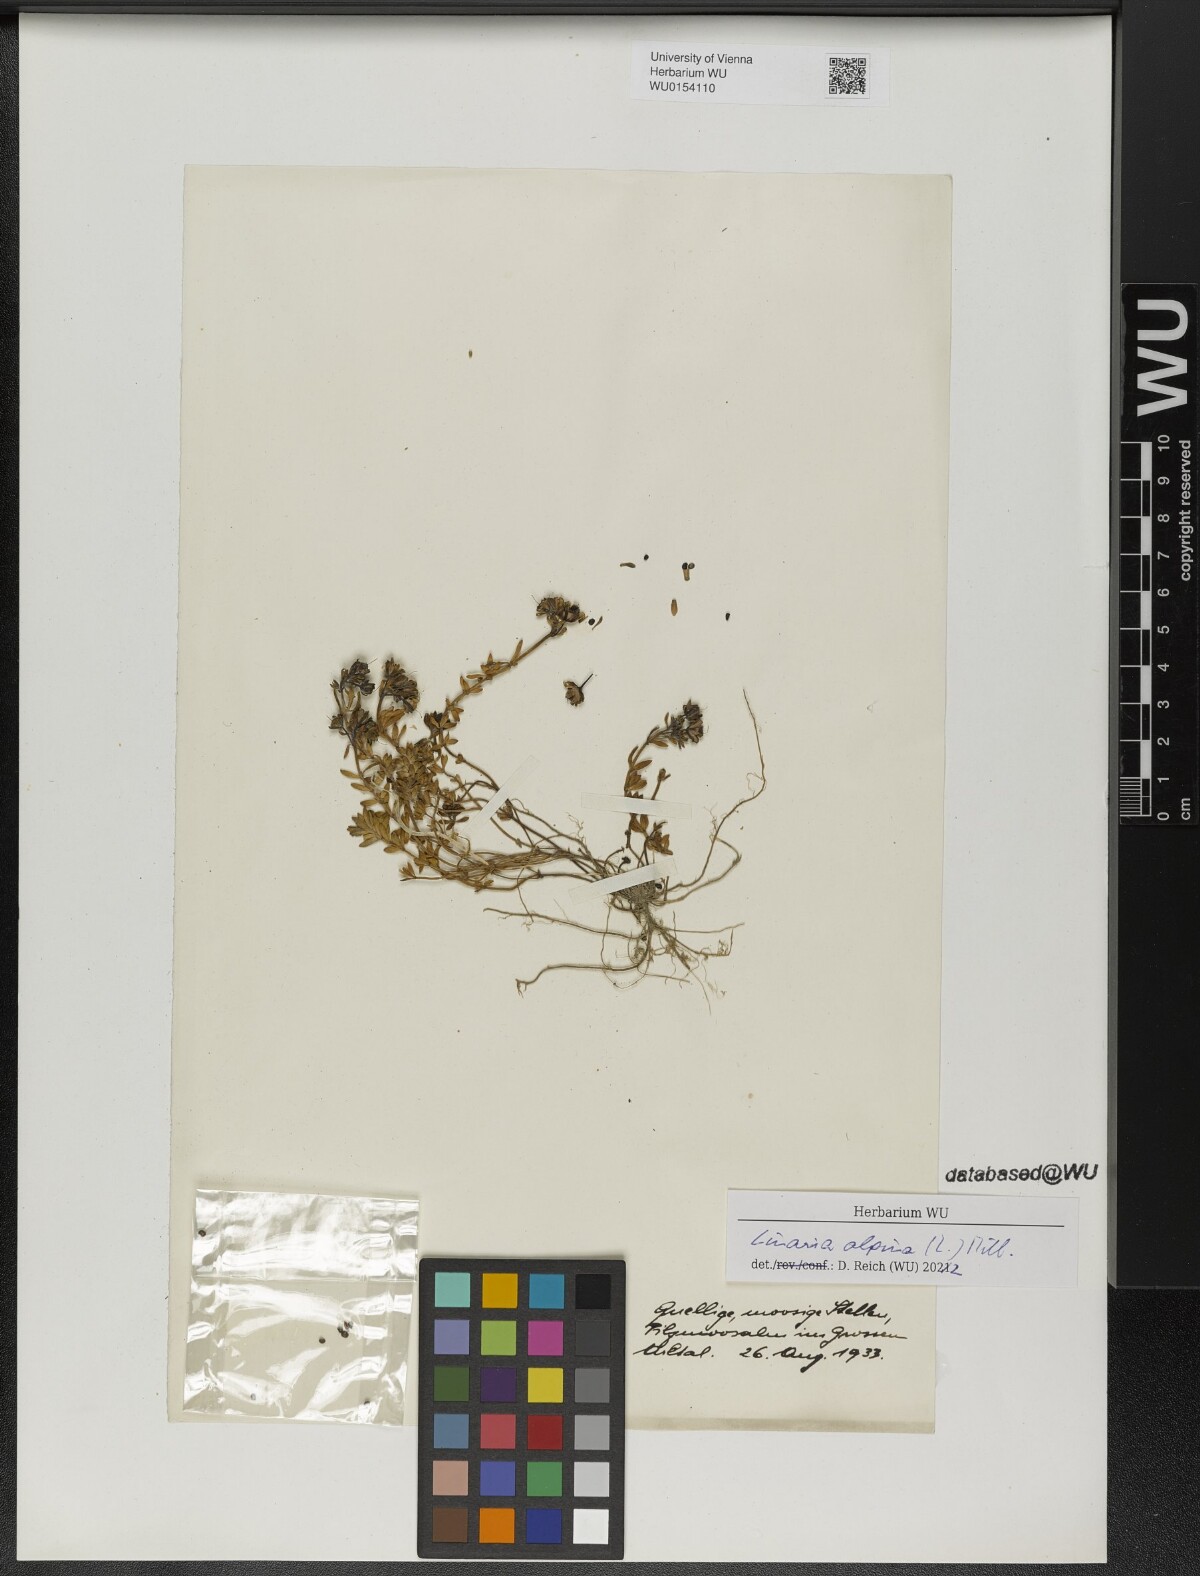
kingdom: Plantae
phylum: Tracheophyta
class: Magnoliopsida
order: Lamiales
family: Plantaginaceae
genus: Linaria
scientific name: Linaria alpina
